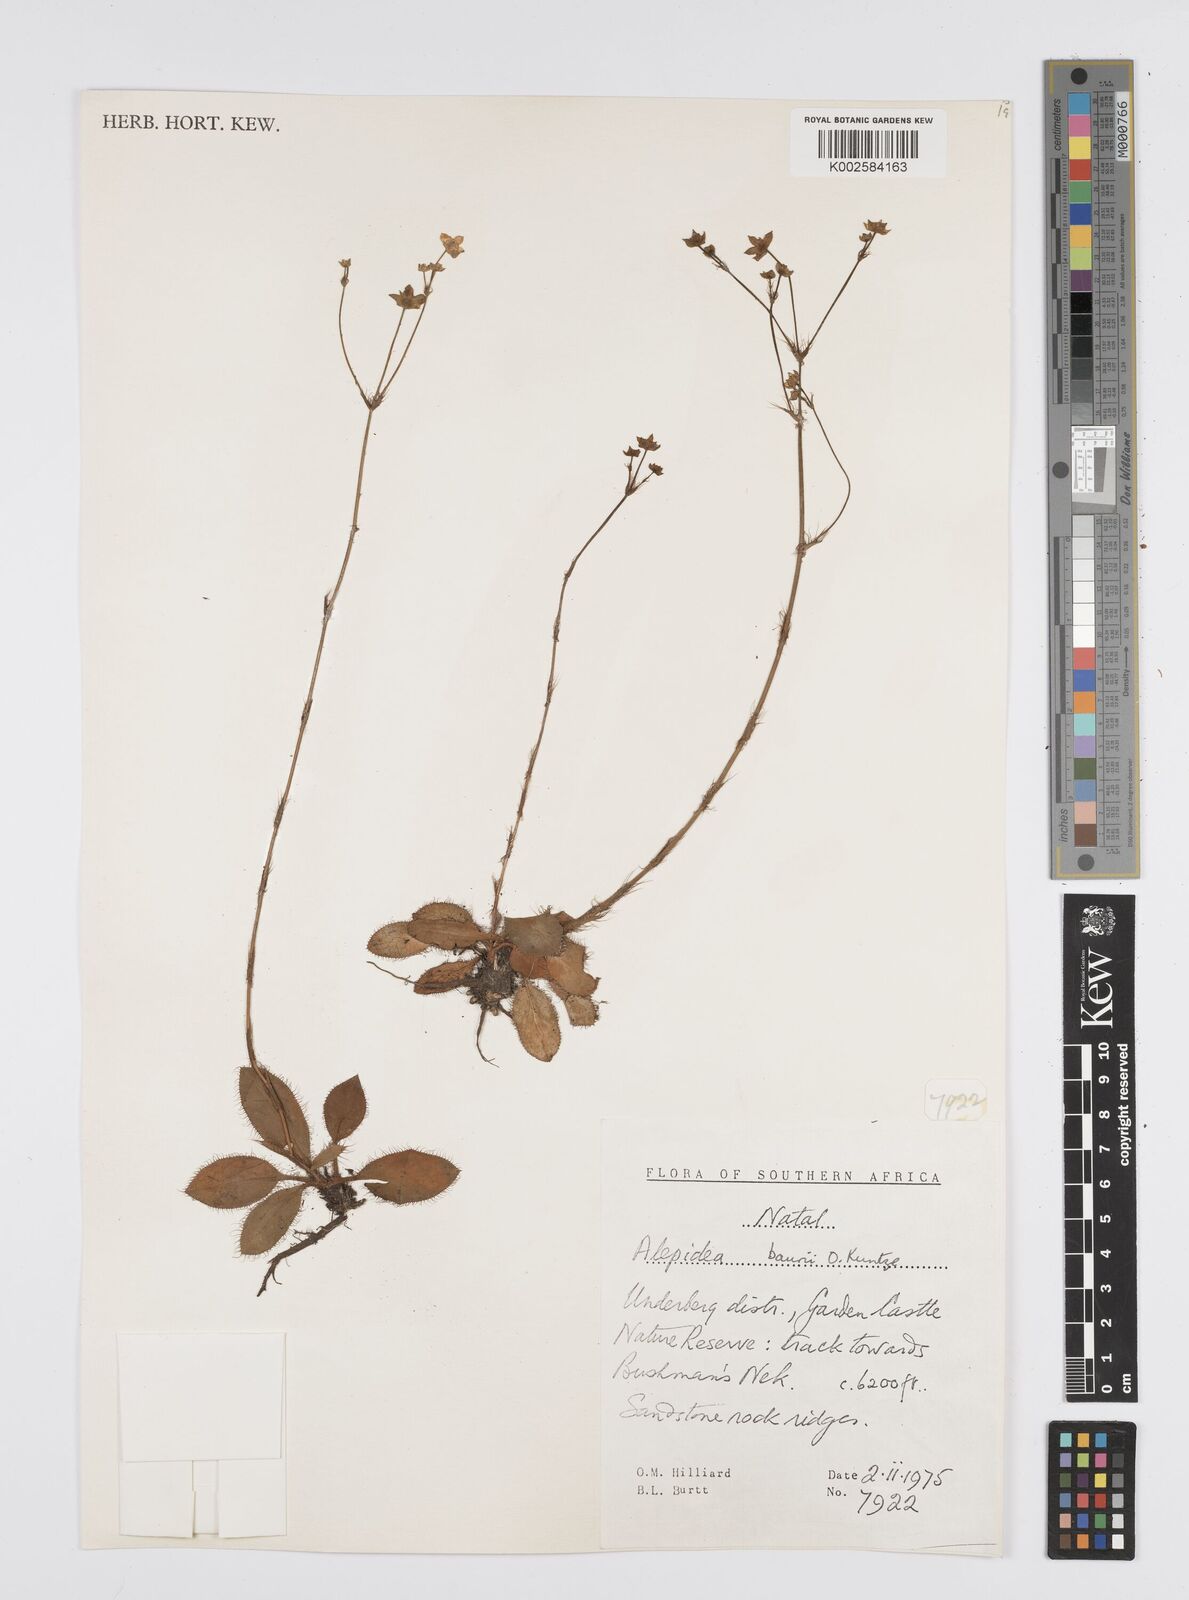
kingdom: Plantae
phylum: Tracheophyta
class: Magnoliopsida
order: Apiales
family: Apiaceae
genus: Alepidea
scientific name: Alepidea natalensis
